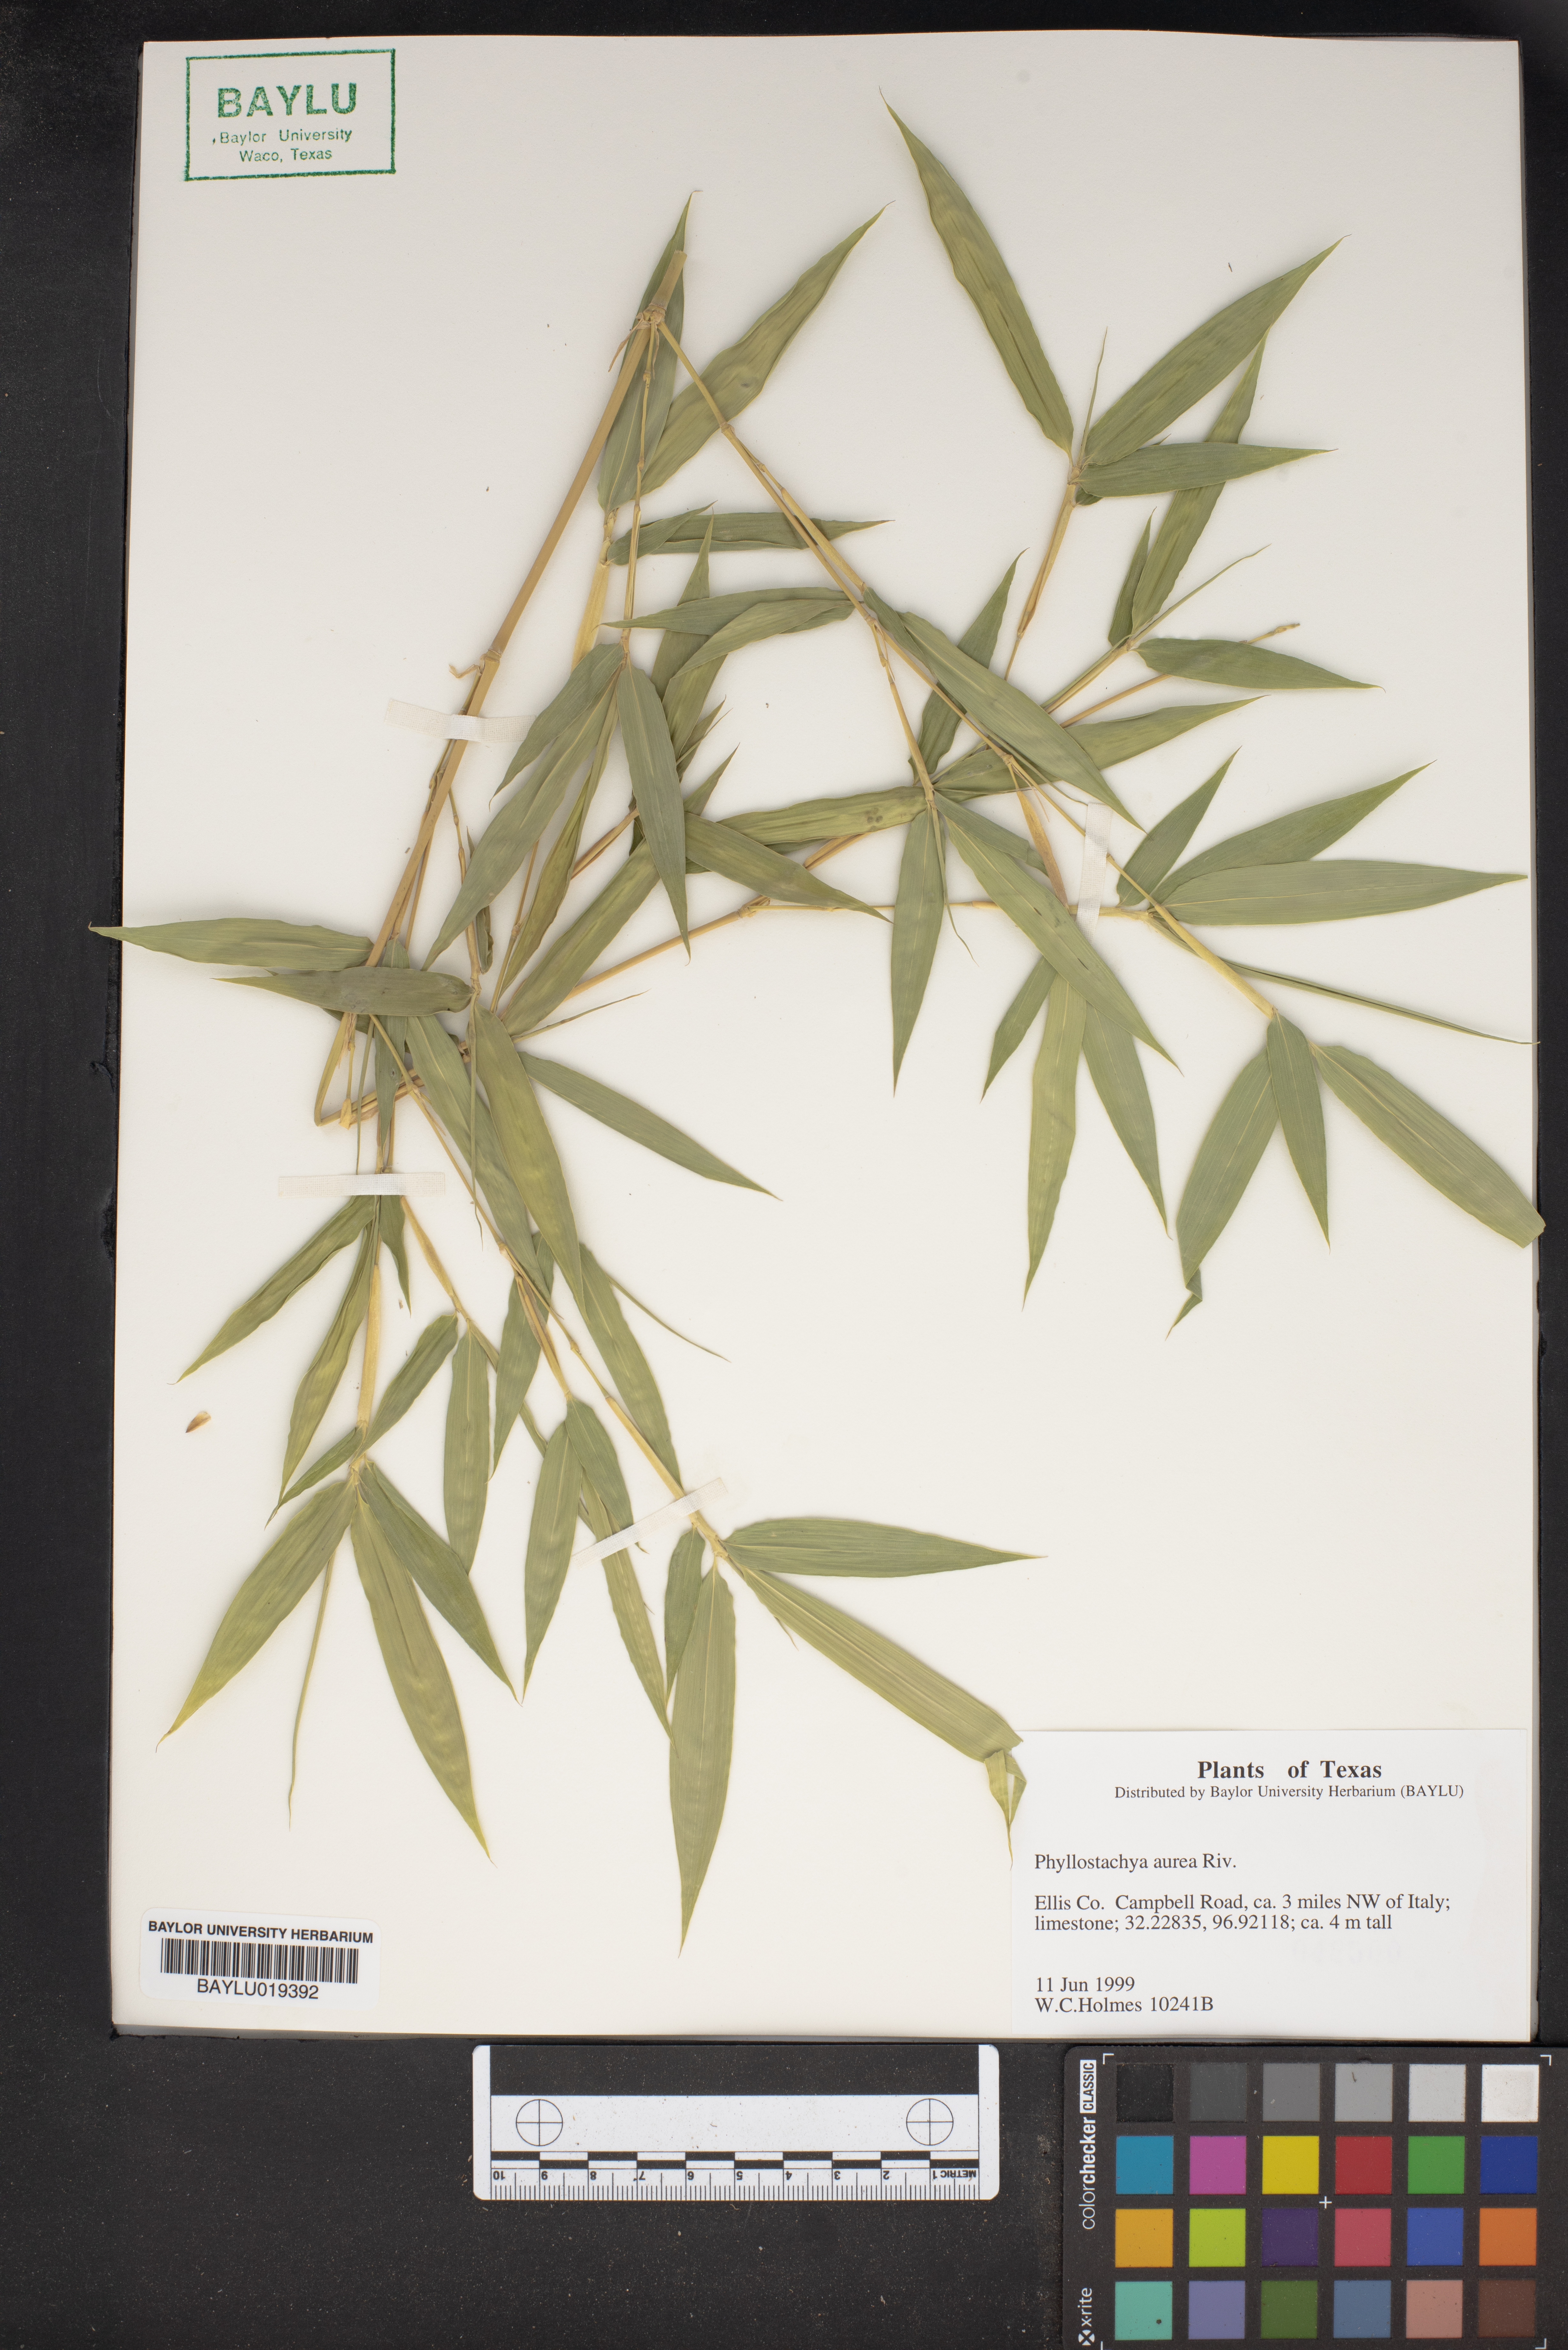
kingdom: Plantae
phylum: Tracheophyta
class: Liliopsida
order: Poales
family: Poaceae
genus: Phyllostachys
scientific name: Phyllostachys aurea
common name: Golden bamboo
